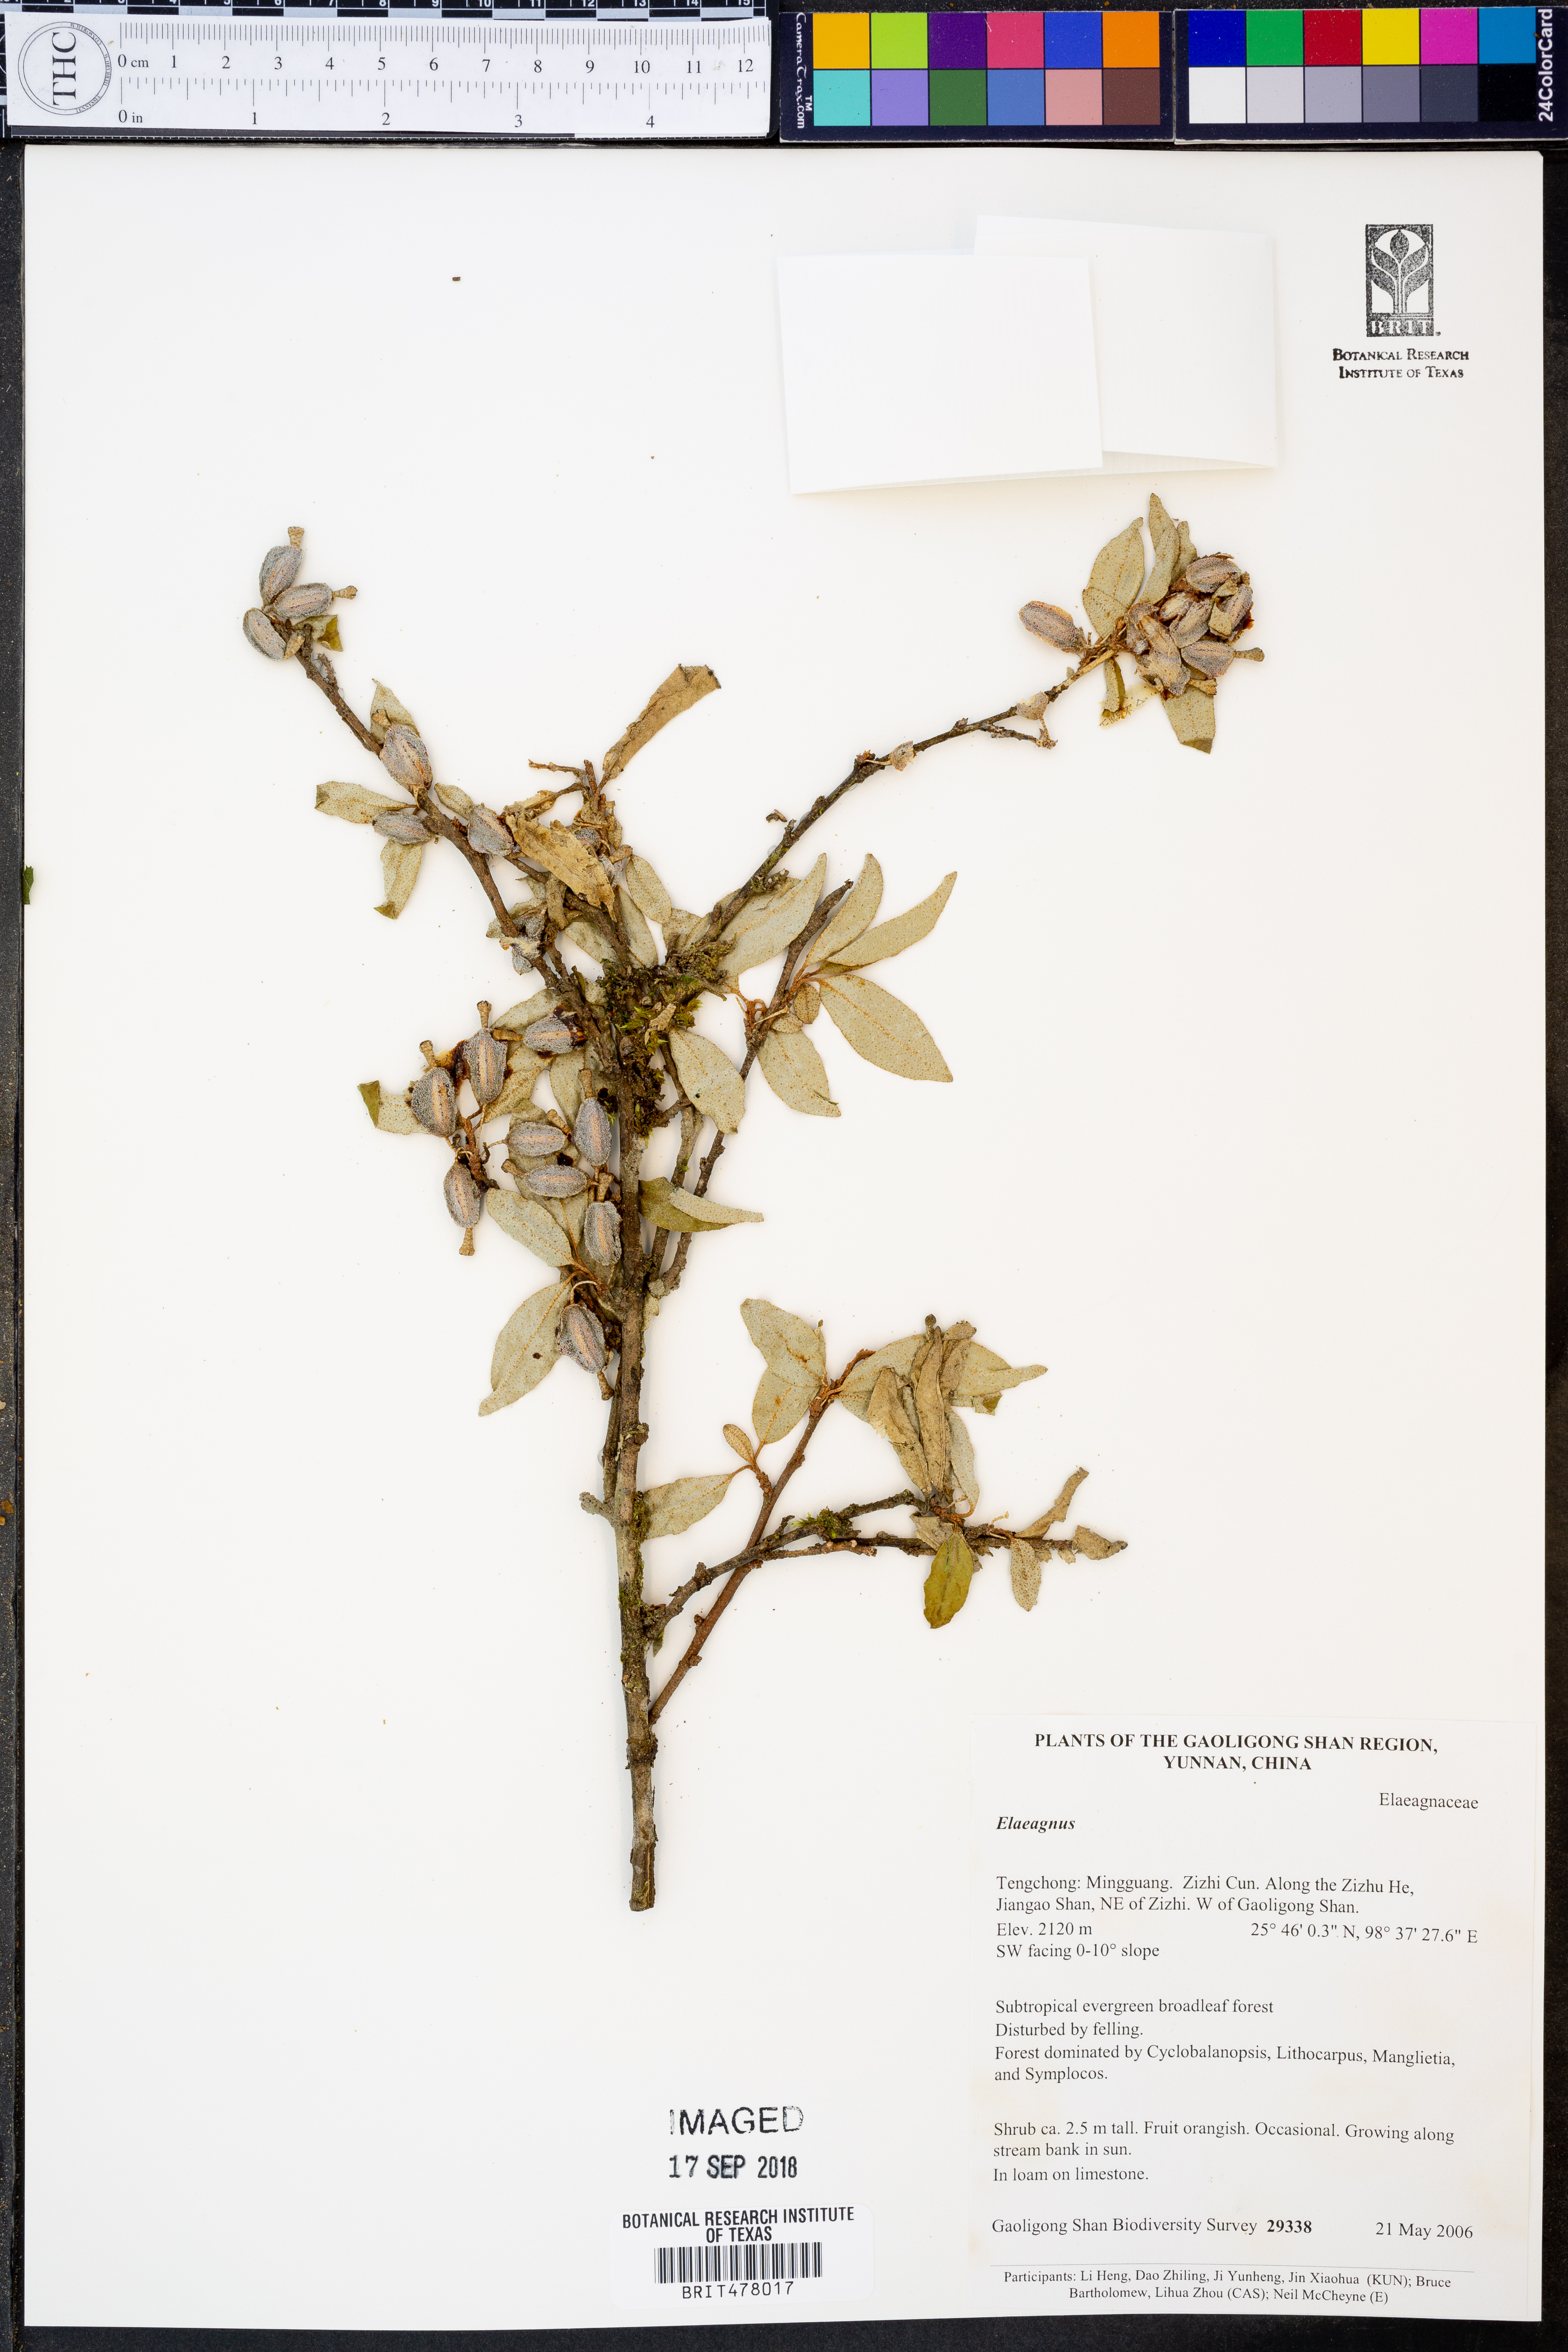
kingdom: Plantae
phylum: Tracheophyta
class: Magnoliopsida
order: Rosales
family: Elaeagnaceae
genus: Elaeagnus
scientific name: Elaeagnus
